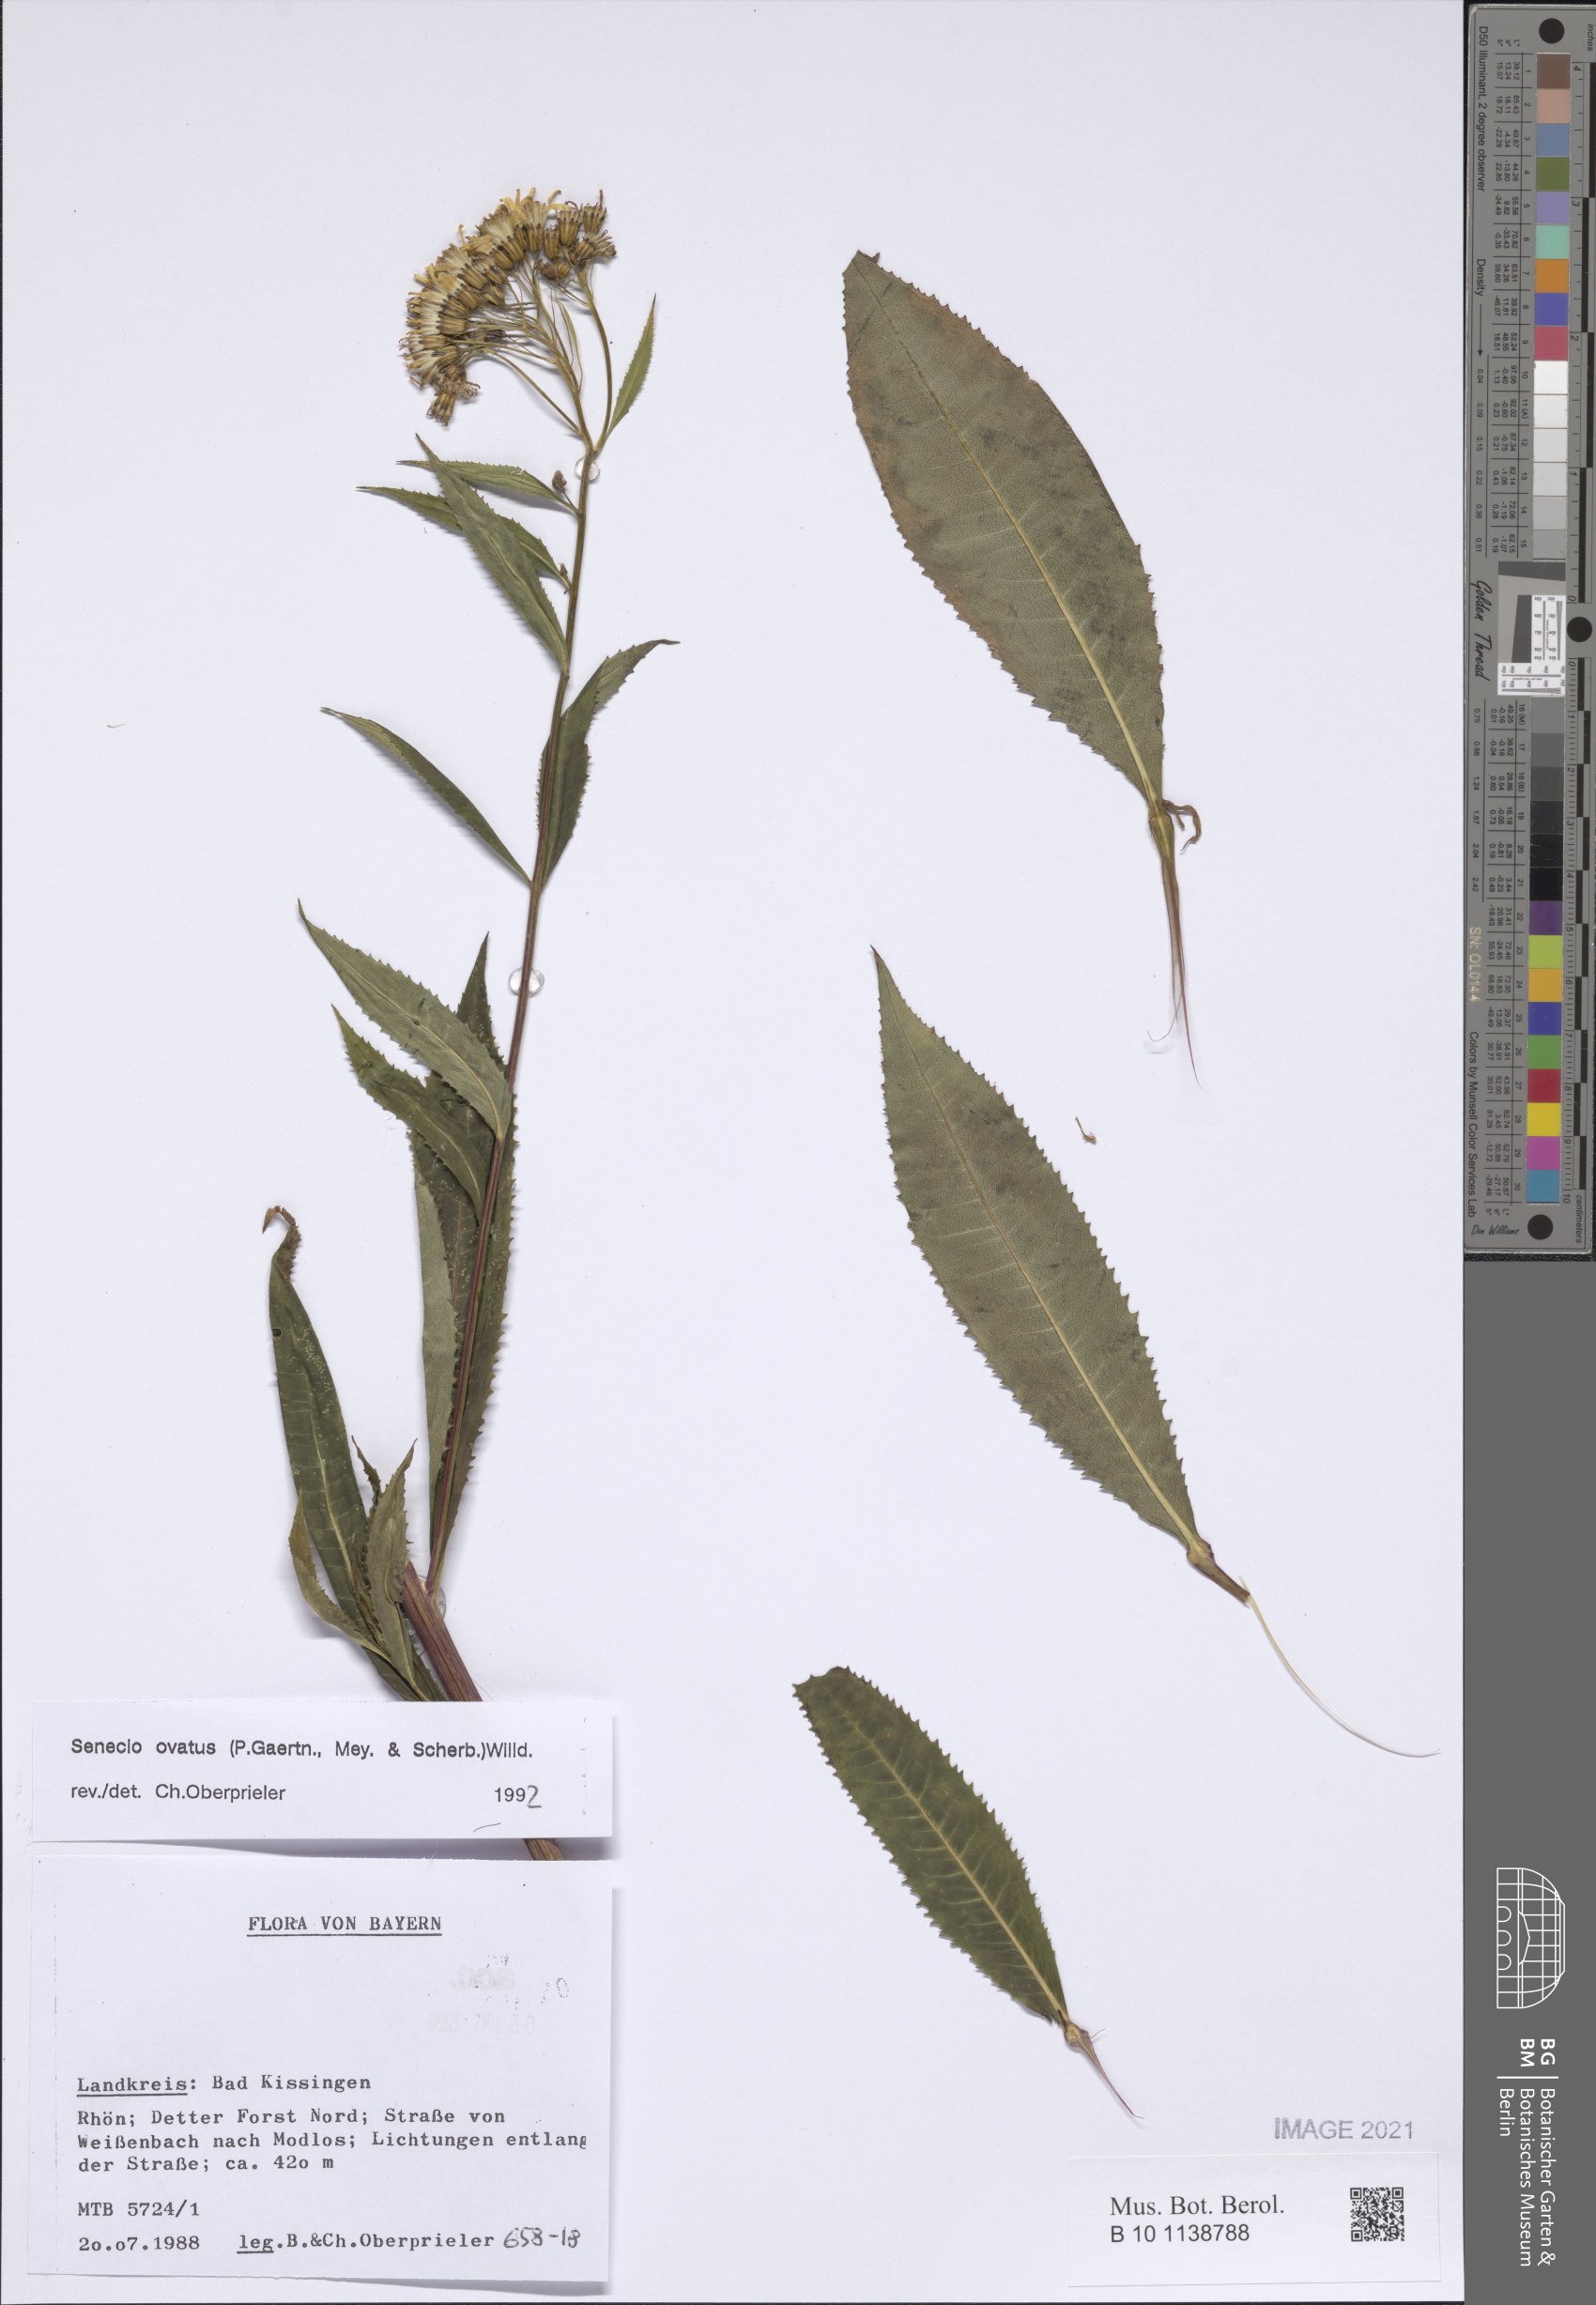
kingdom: Plantae
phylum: Tracheophyta
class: Magnoliopsida
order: Asterales
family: Asteraceae
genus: Senecio
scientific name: Senecio ovatus
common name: Wood ragwort
